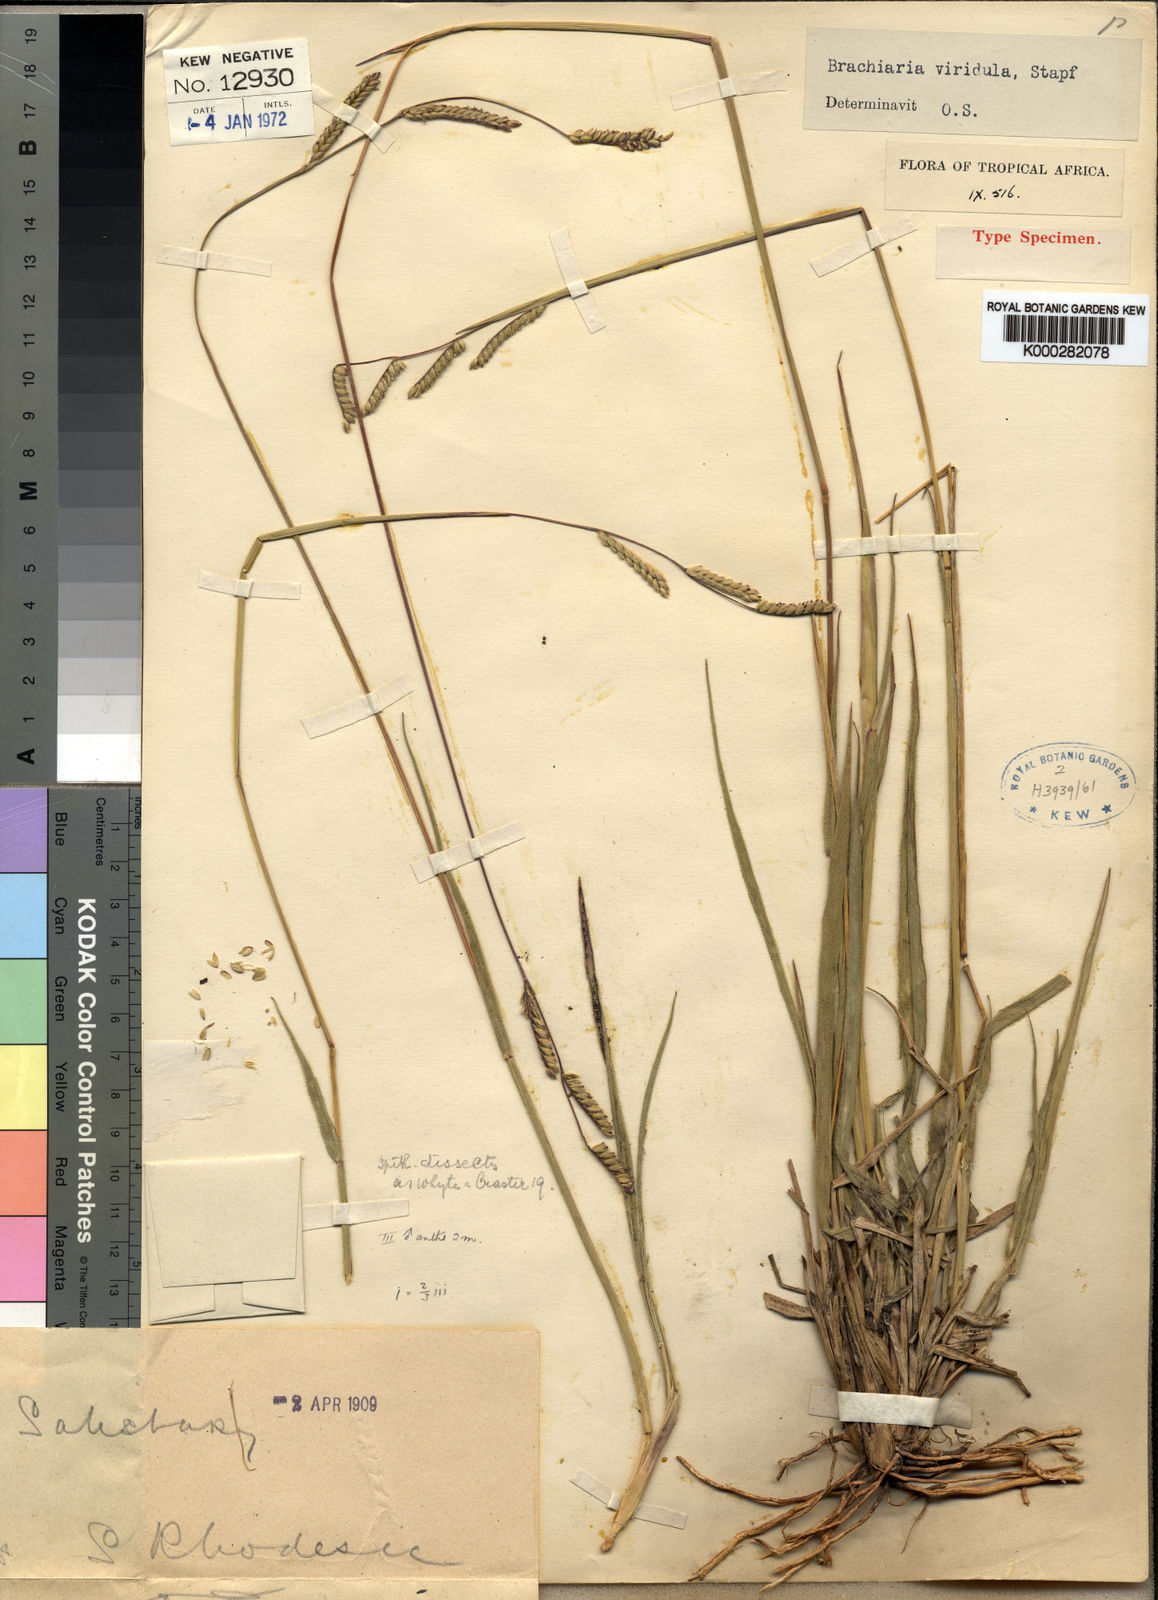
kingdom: Plantae
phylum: Tracheophyta
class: Liliopsida
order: Poales
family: Poaceae
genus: Urochloa
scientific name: Urochloa bovonei
